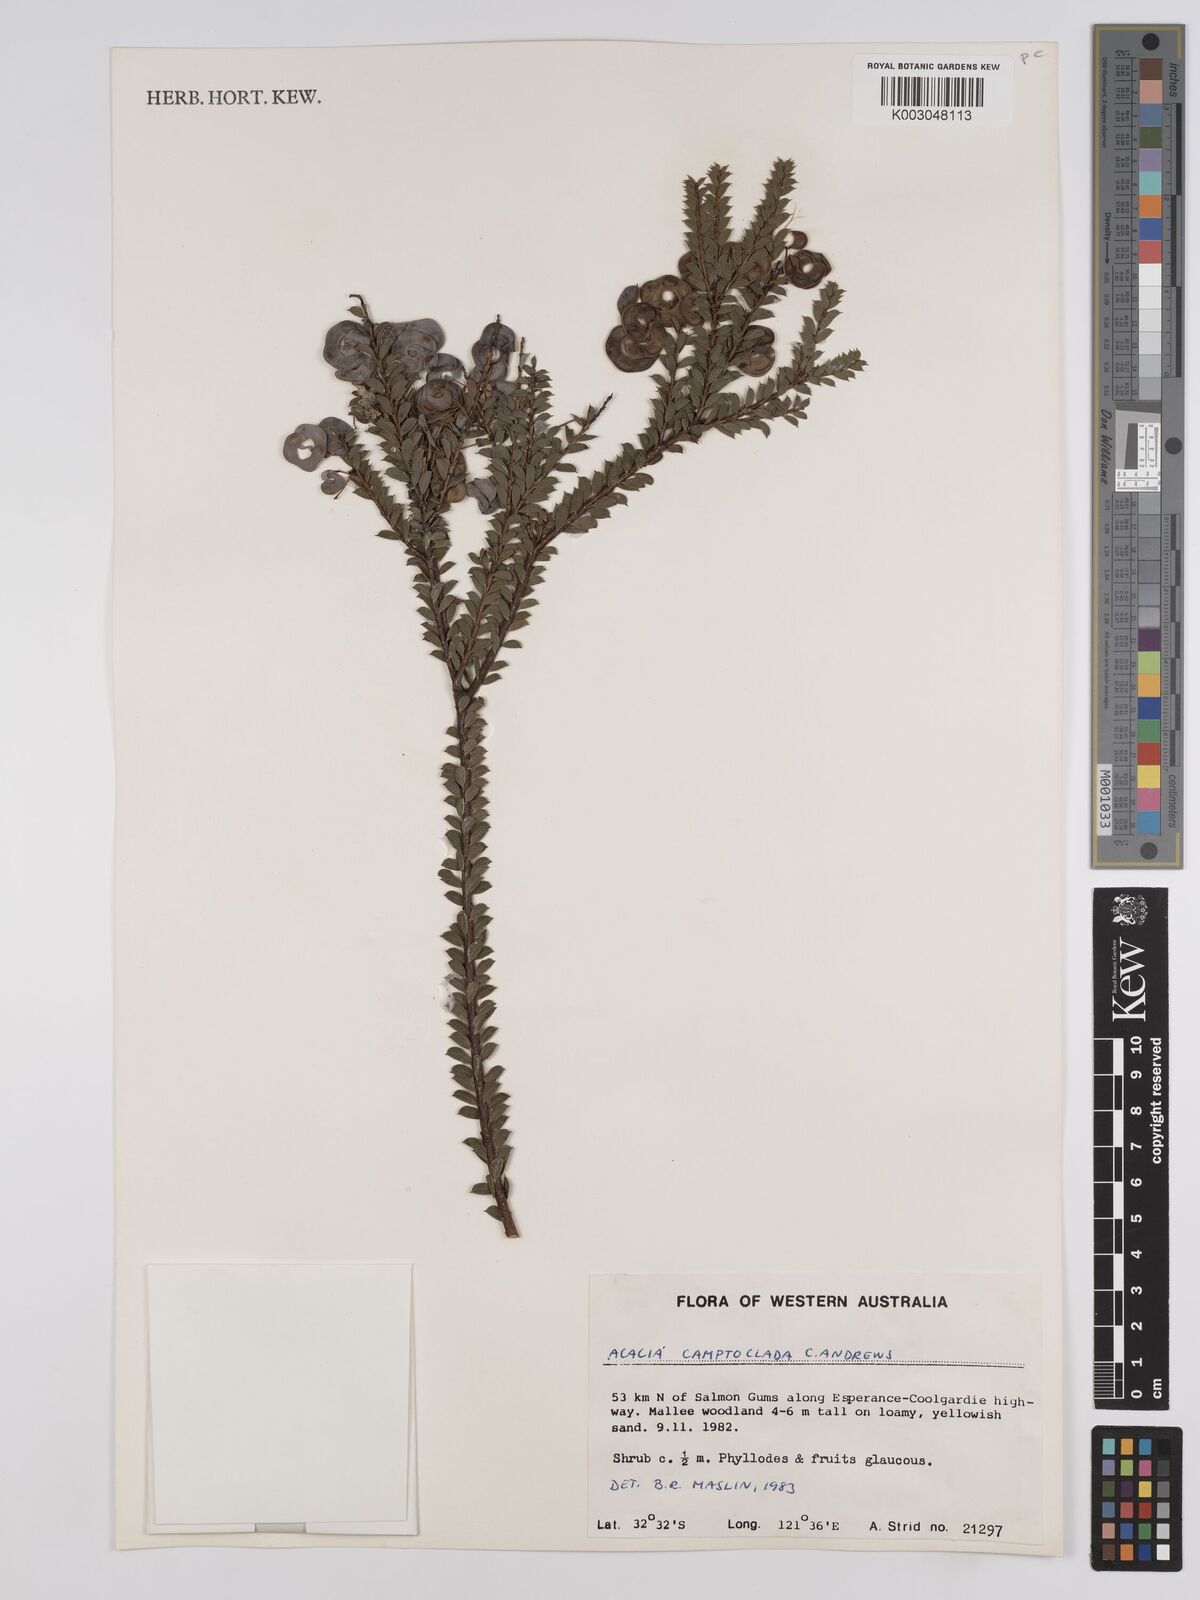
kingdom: Plantae
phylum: Tracheophyta
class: Magnoliopsida
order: Fabales
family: Fabaceae
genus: Acacia
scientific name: Acacia camptoclada
